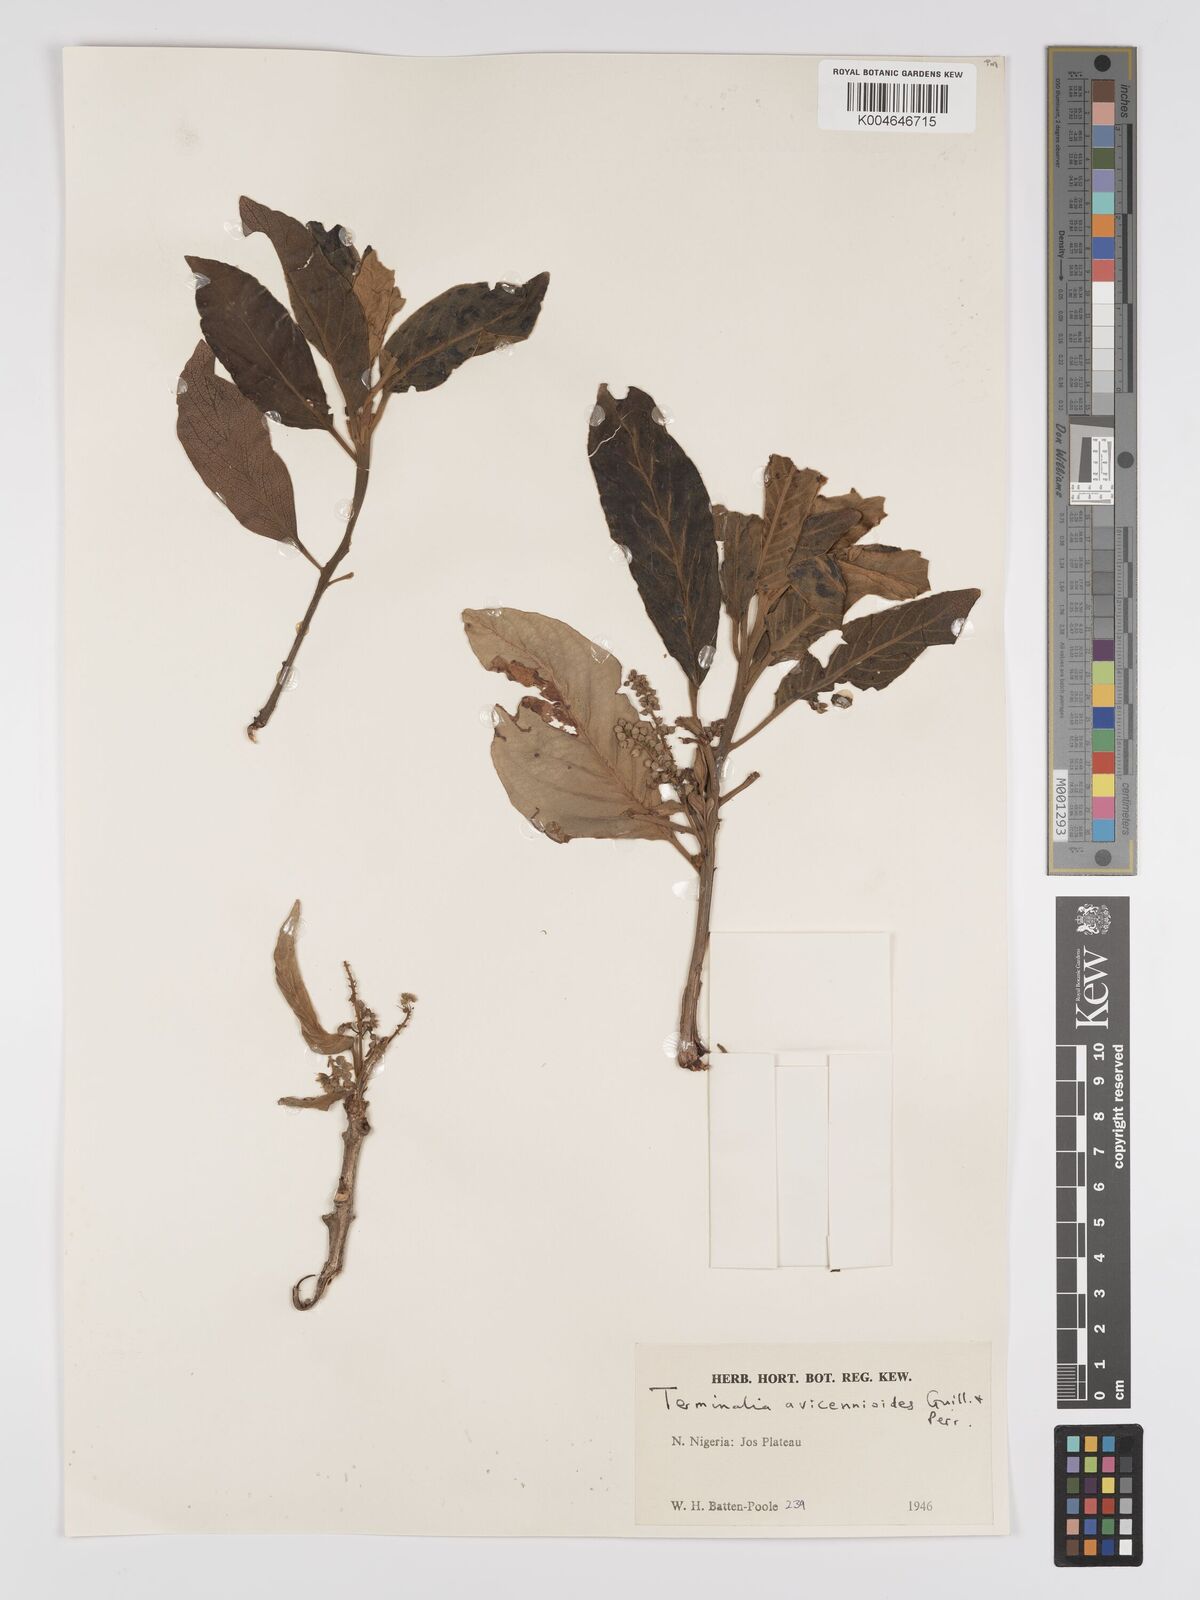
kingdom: Plantae
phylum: Tracheophyta
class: Magnoliopsida
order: Myrtales
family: Combretaceae
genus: Terminalia
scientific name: Terminalia avicennioides
